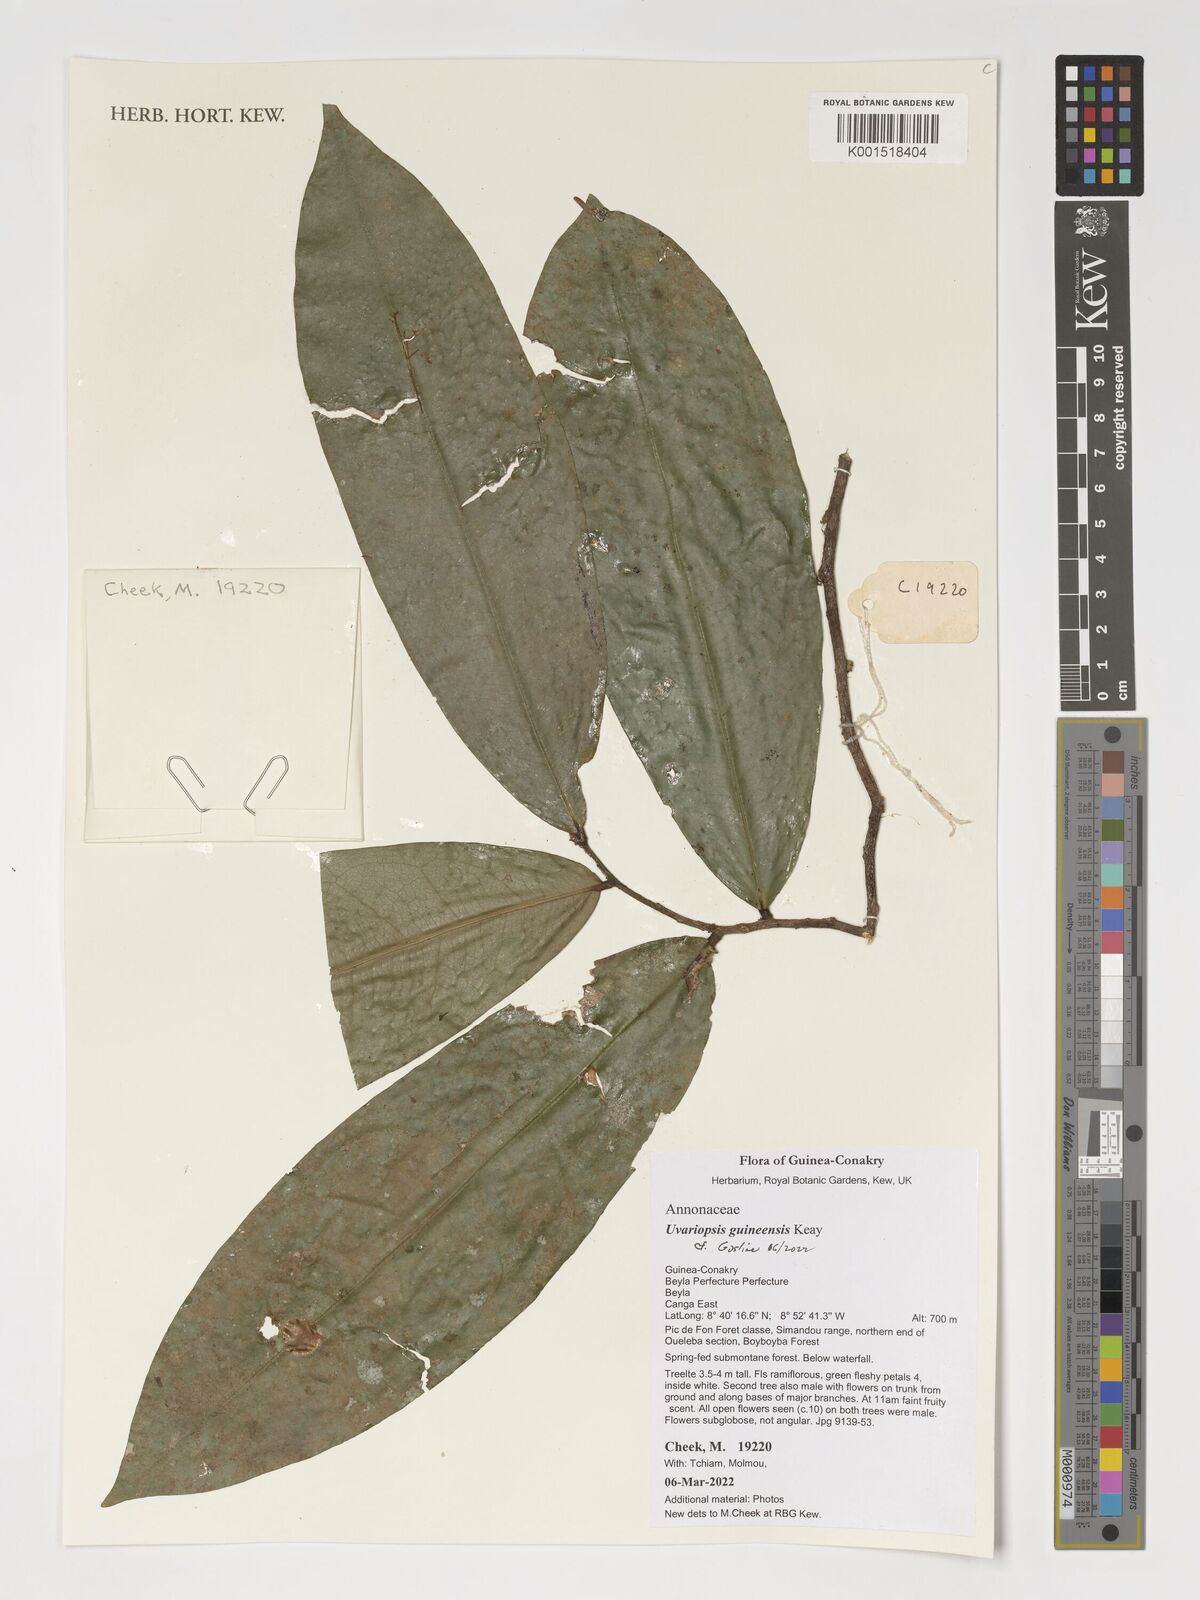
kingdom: Plantae
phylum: Tracheophyta
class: Magnoliopsida
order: Magnoliales
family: Annonaceae
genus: Uvariopsis
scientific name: Uvariopsis guineensis
